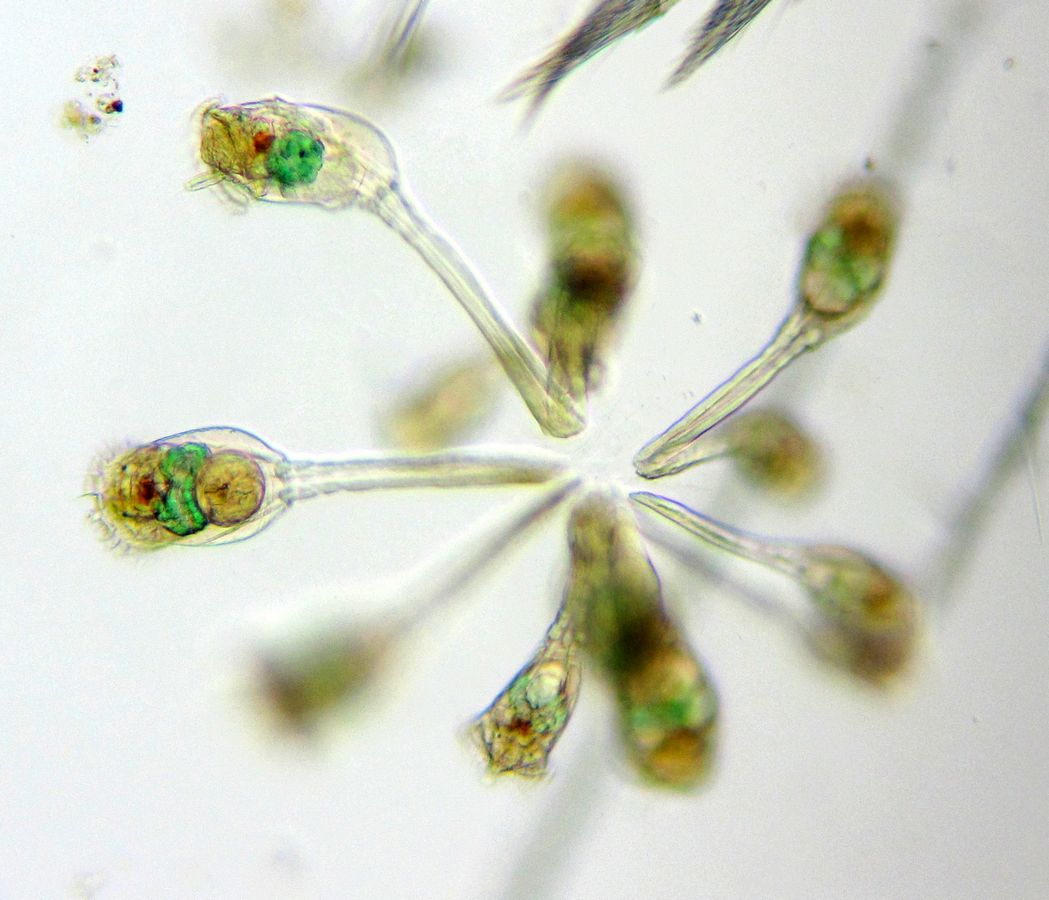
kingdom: Animalia
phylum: Rotifera
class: Eurotatoria
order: Flosculariaceae
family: Conochilidae
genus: Conochilus
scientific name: Conochilus unicornis
